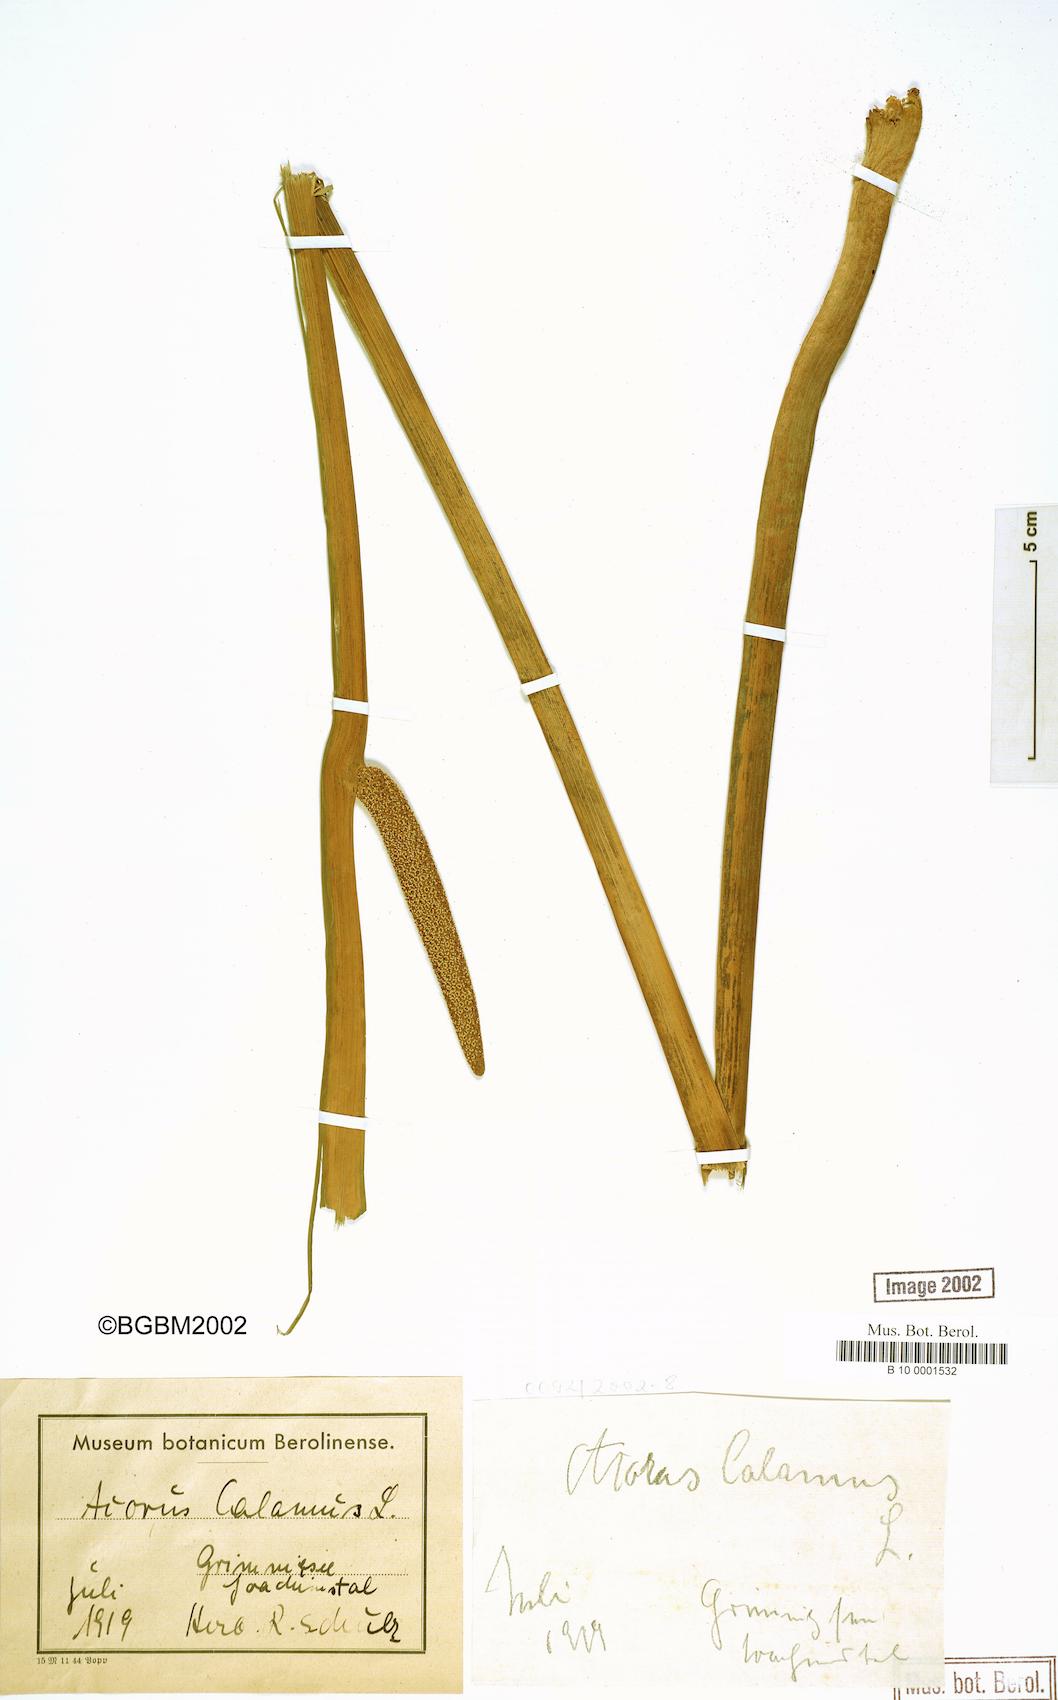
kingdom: Plantae
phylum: Tracheophyta
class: Liliopsida
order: Acorales
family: Acoraceae
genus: Acorus
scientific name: Acorus calamus
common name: Sweet-flag
